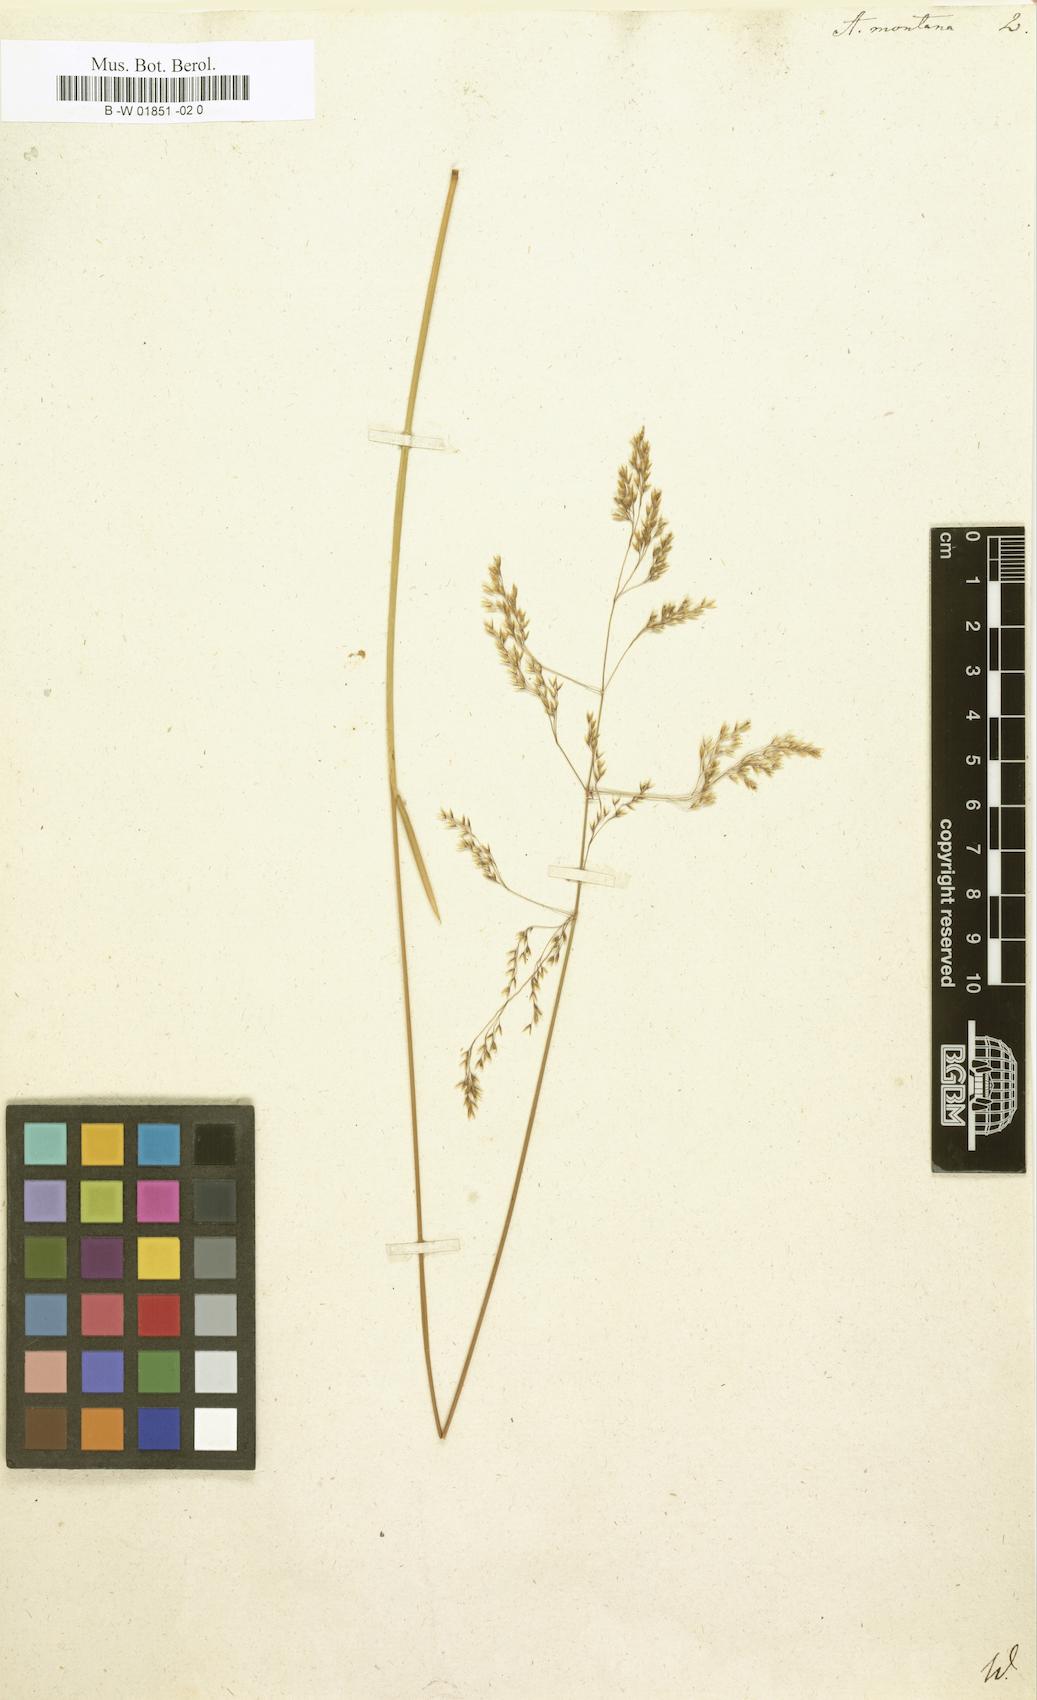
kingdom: Plantae
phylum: Tracheophyta
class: Liliopsida
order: Poales
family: Poaceae
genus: Avenella
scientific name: Avenella flexuosa
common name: Wavy hairgrass
